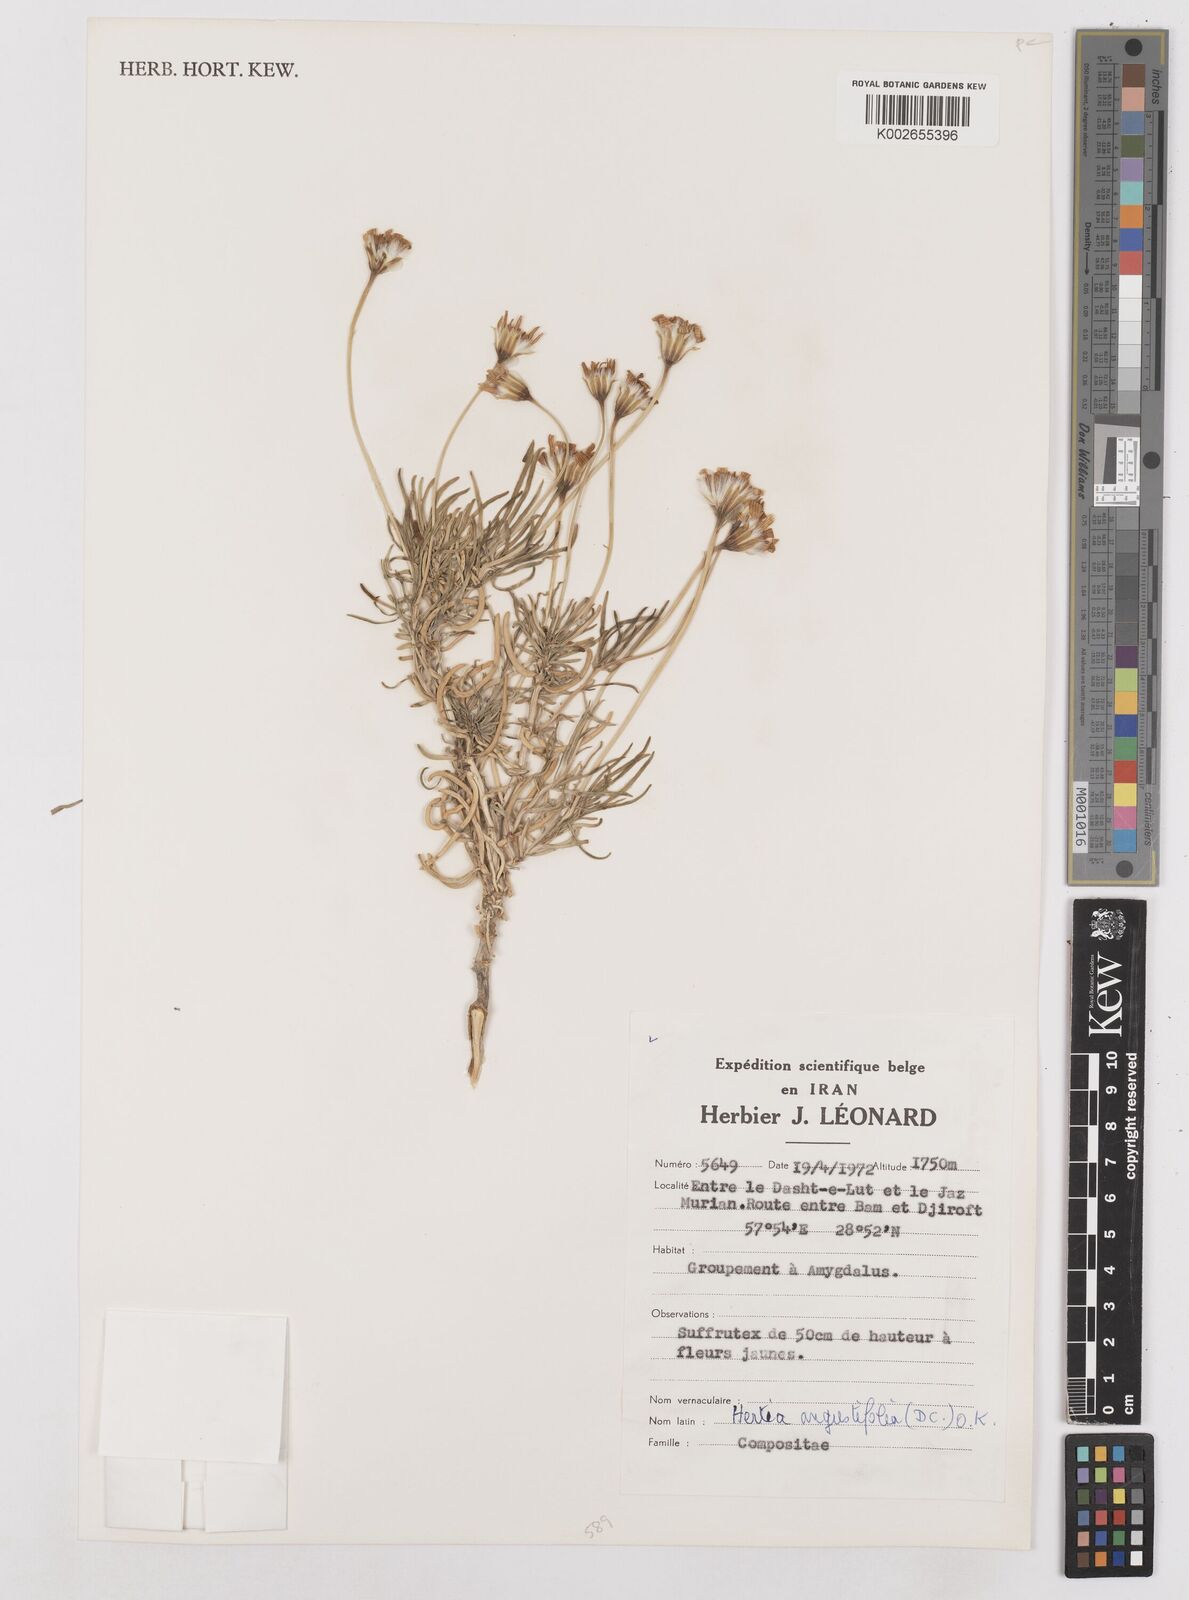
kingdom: Plantae
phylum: Tracheophyta
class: Magnoliopsida
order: Asterales
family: Asteraceae
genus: Hertia
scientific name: Hertia angustifolia
